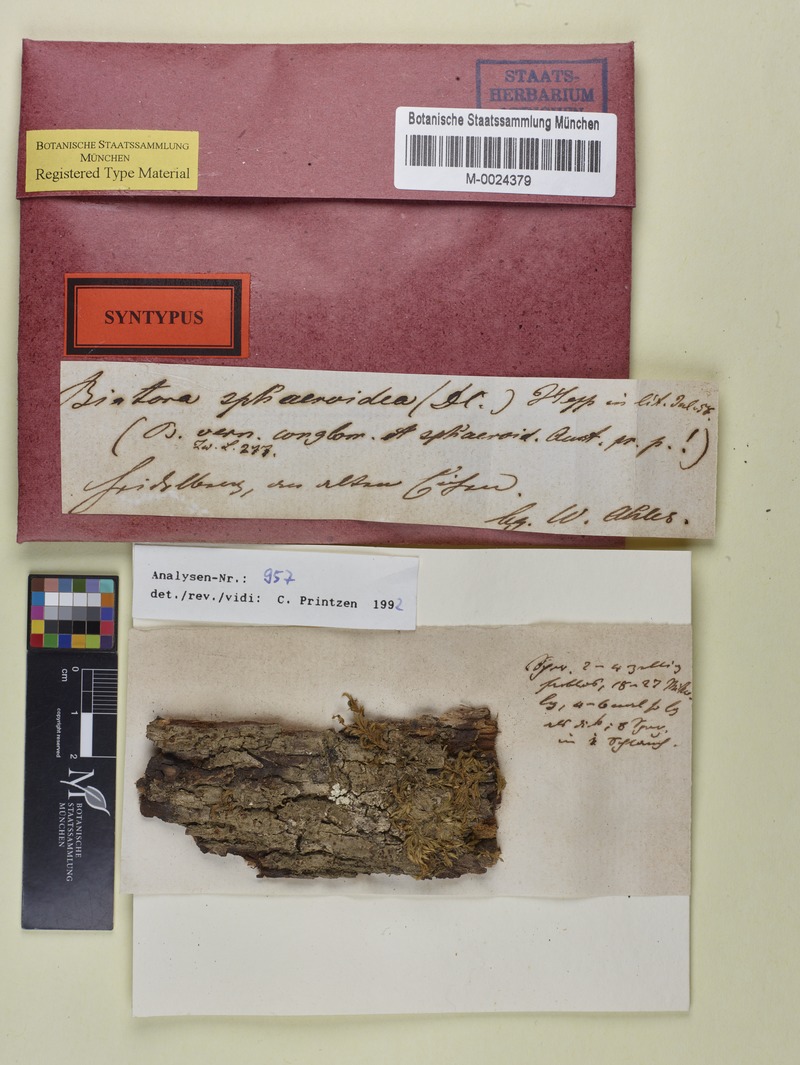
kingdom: Fungi
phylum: Ascomycota
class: Lecanoromycetes
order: Lecanorales
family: Ramalinaceae
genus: Bacidia
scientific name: Bacidia badensis
